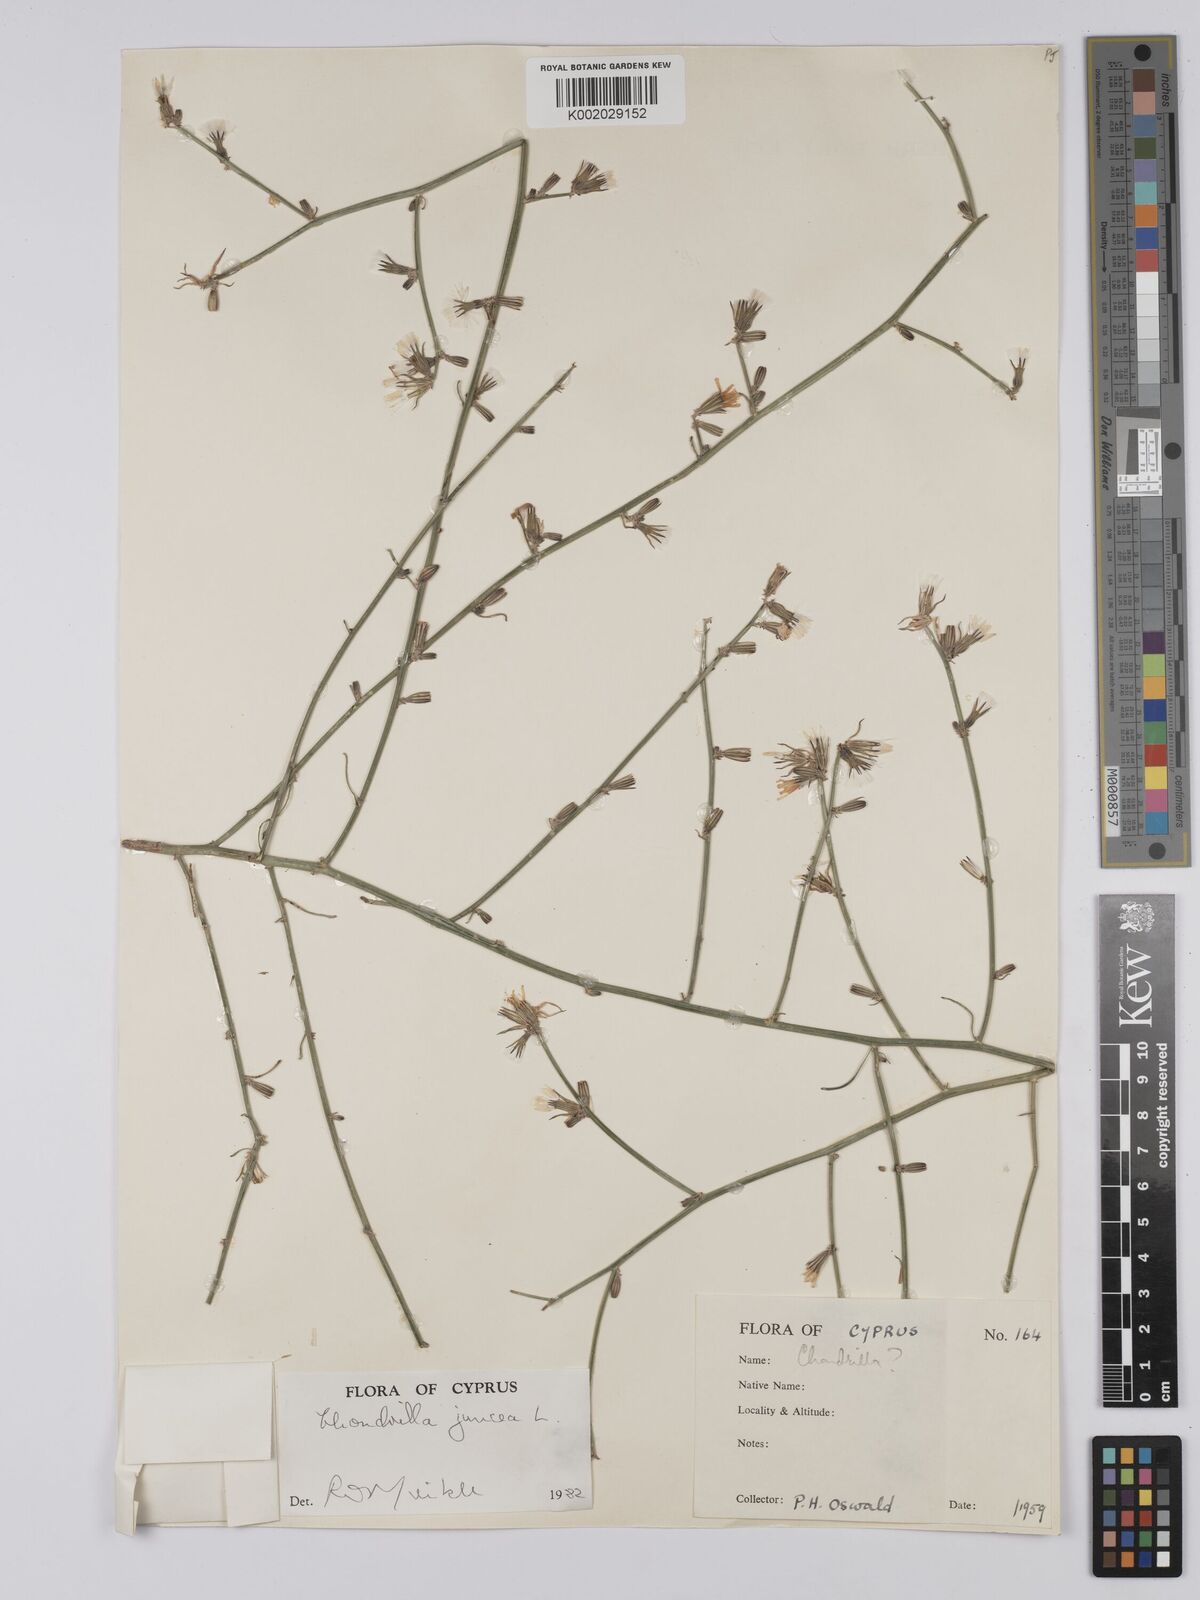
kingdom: Plantae
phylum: Tracheophyta
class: Magnoliopsida
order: Asterales
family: Asteraceae
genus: Chondrilla
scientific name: Chondrilla juncea
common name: Skeleton weed
